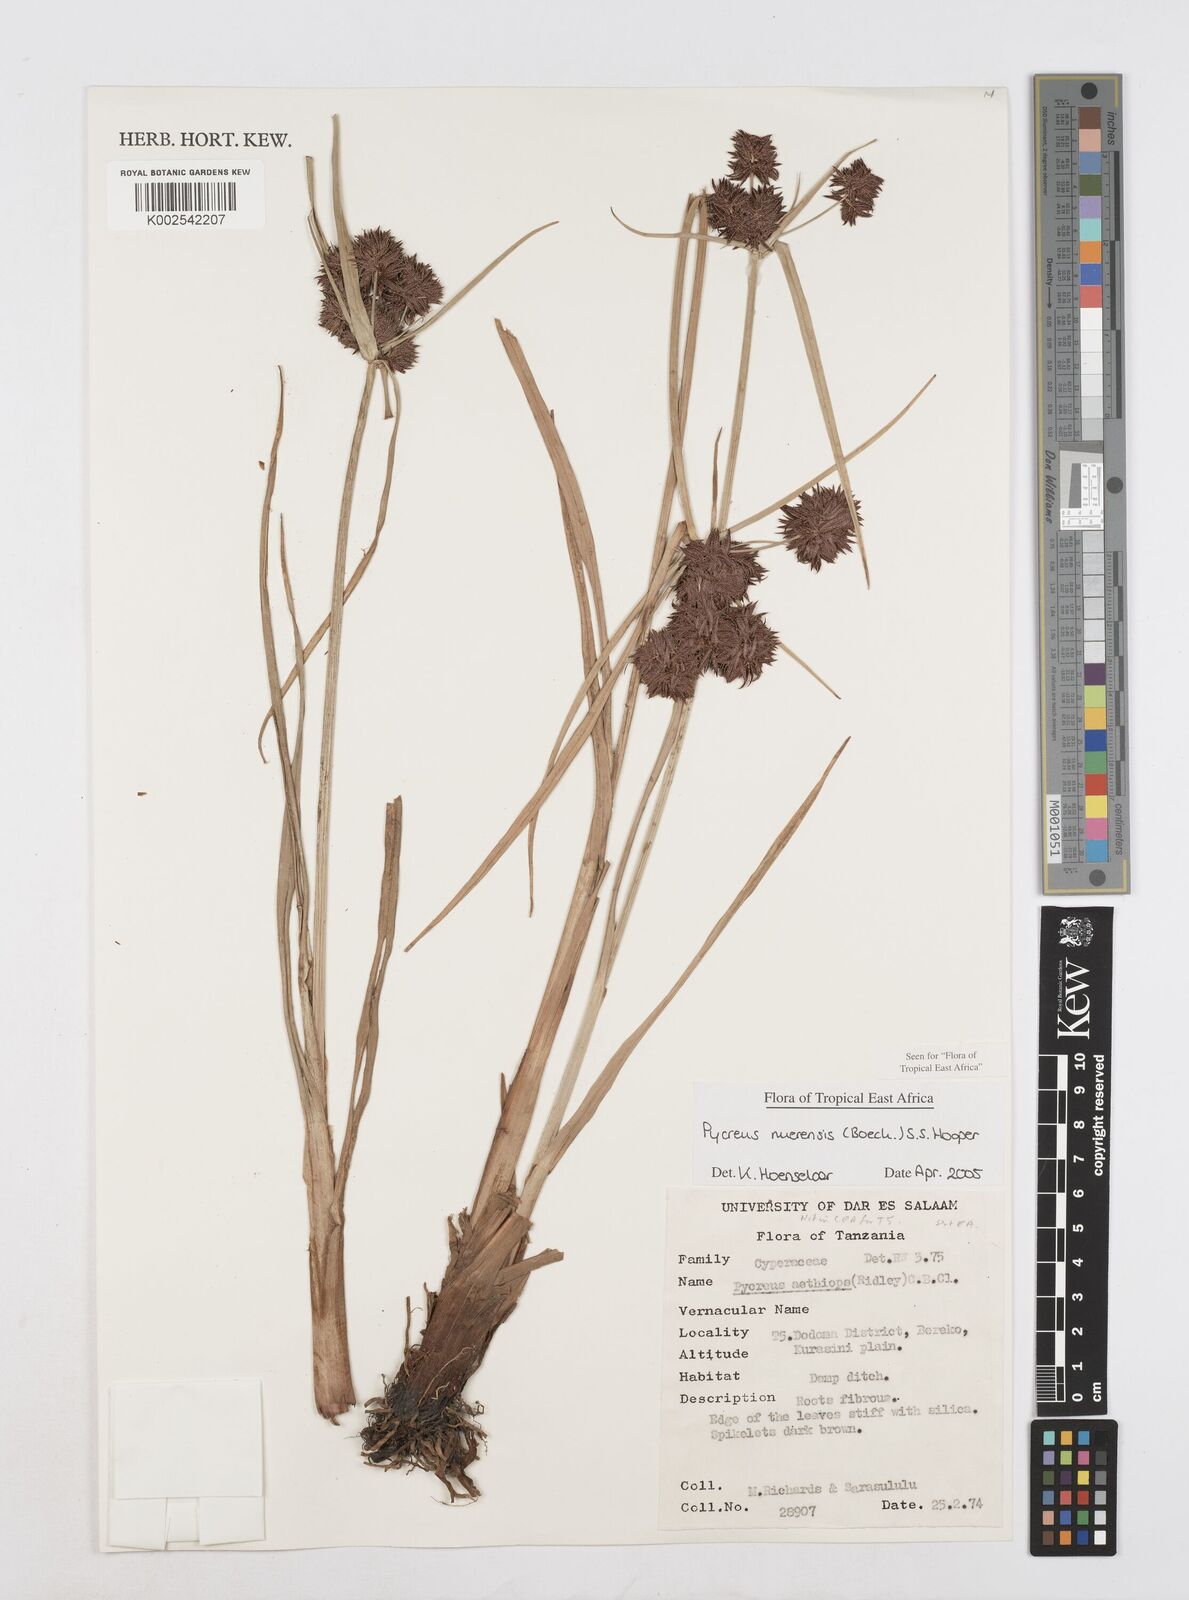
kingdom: Plantae
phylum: Tracheophyta
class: Liliopsida
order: Poales
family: Cyperaceae
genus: Cyperus
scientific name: Cyperus nuerensis
